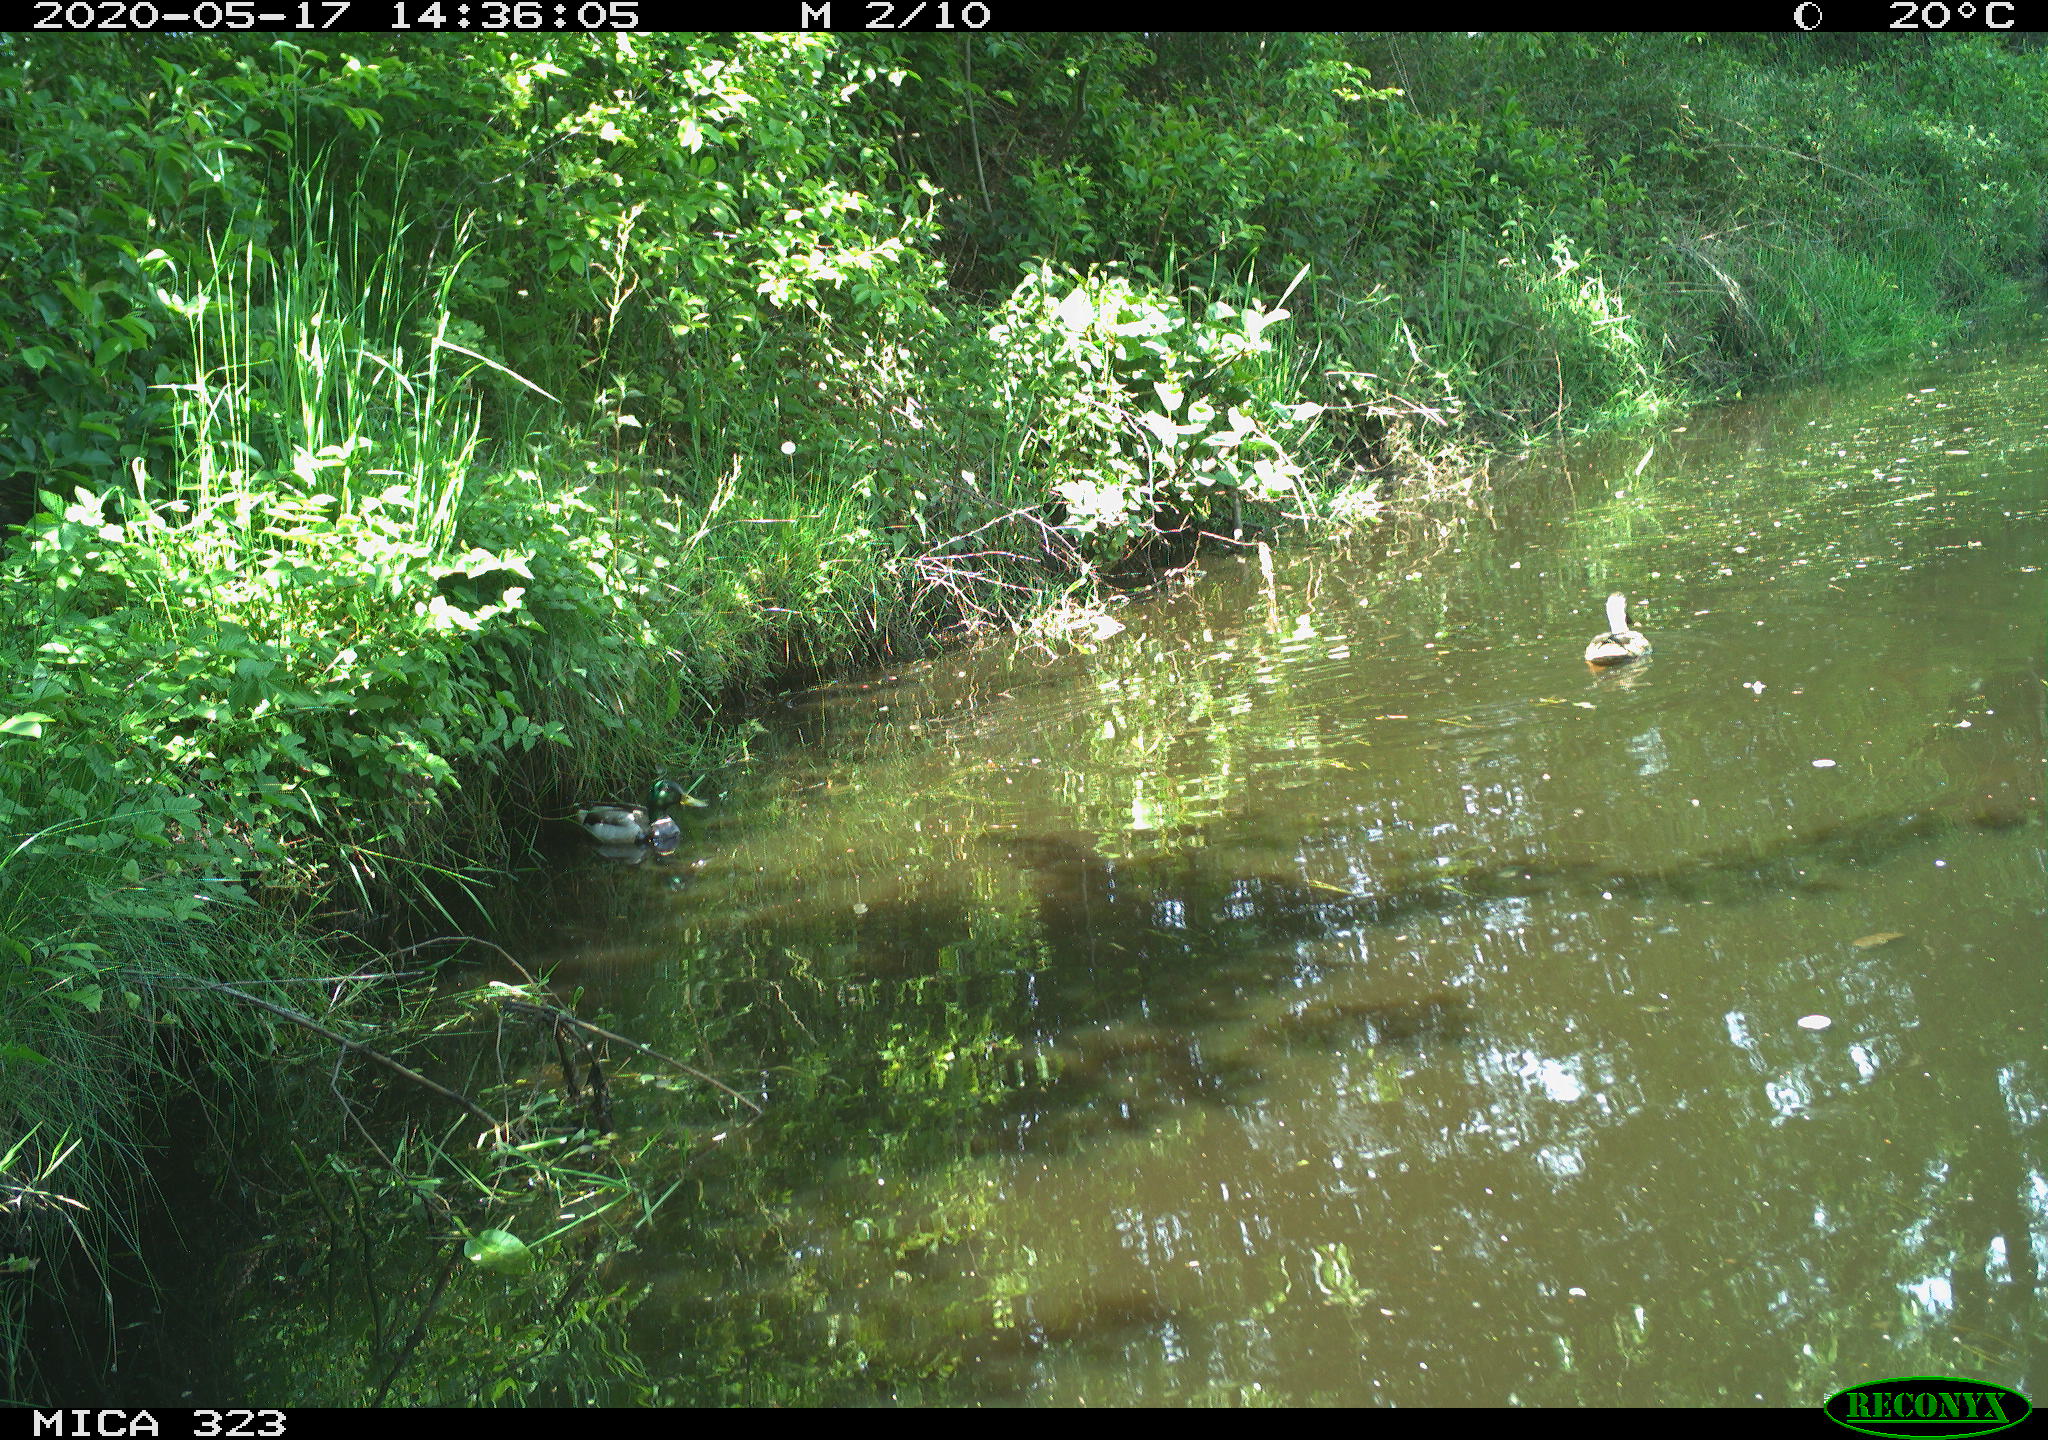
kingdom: Animalia
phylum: Chordata
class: Aves
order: Anseriformes
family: Anatidae
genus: Anas
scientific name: Anas platyrhynchos
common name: Mallard
